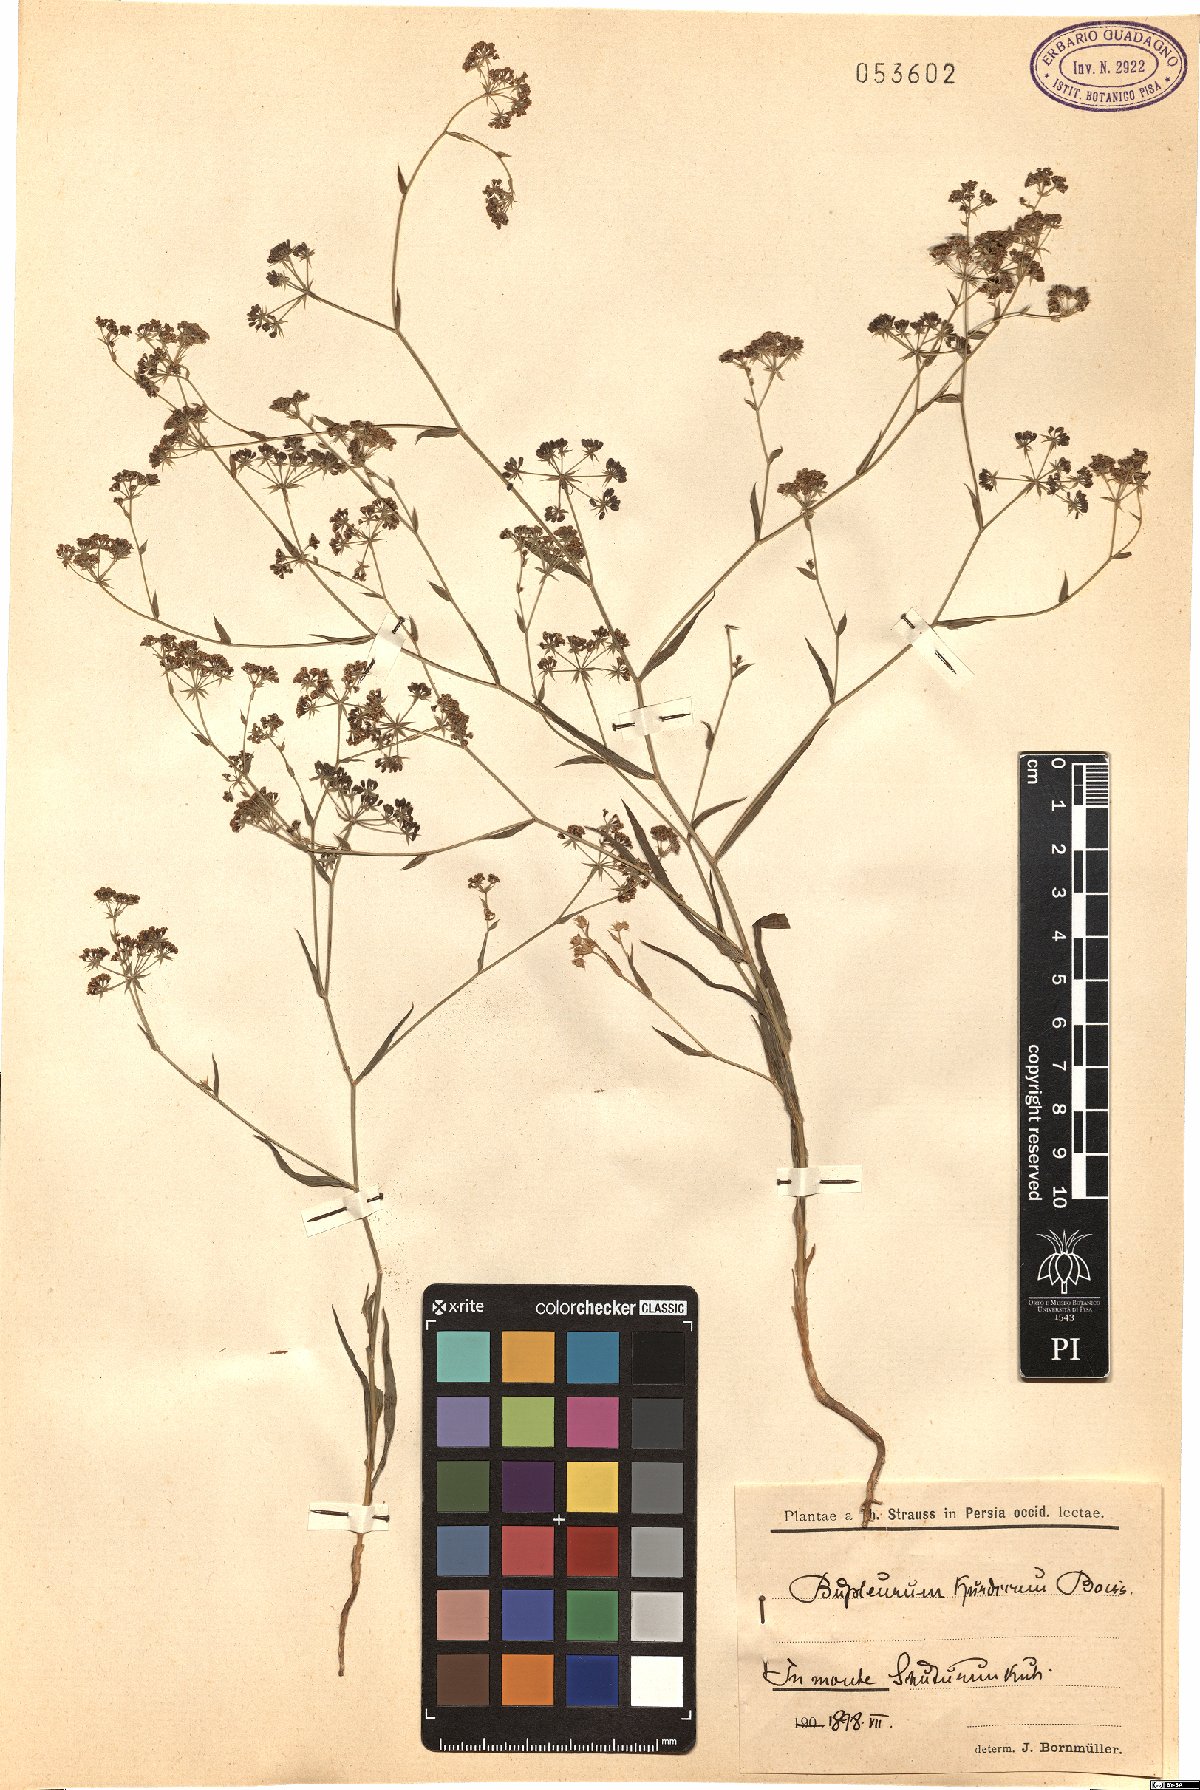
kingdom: Plantae
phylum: Tracheophyta
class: Magnoliopsida
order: Apiales
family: Apiaceae
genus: Bupleurum
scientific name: Bupleurum kurdicum
